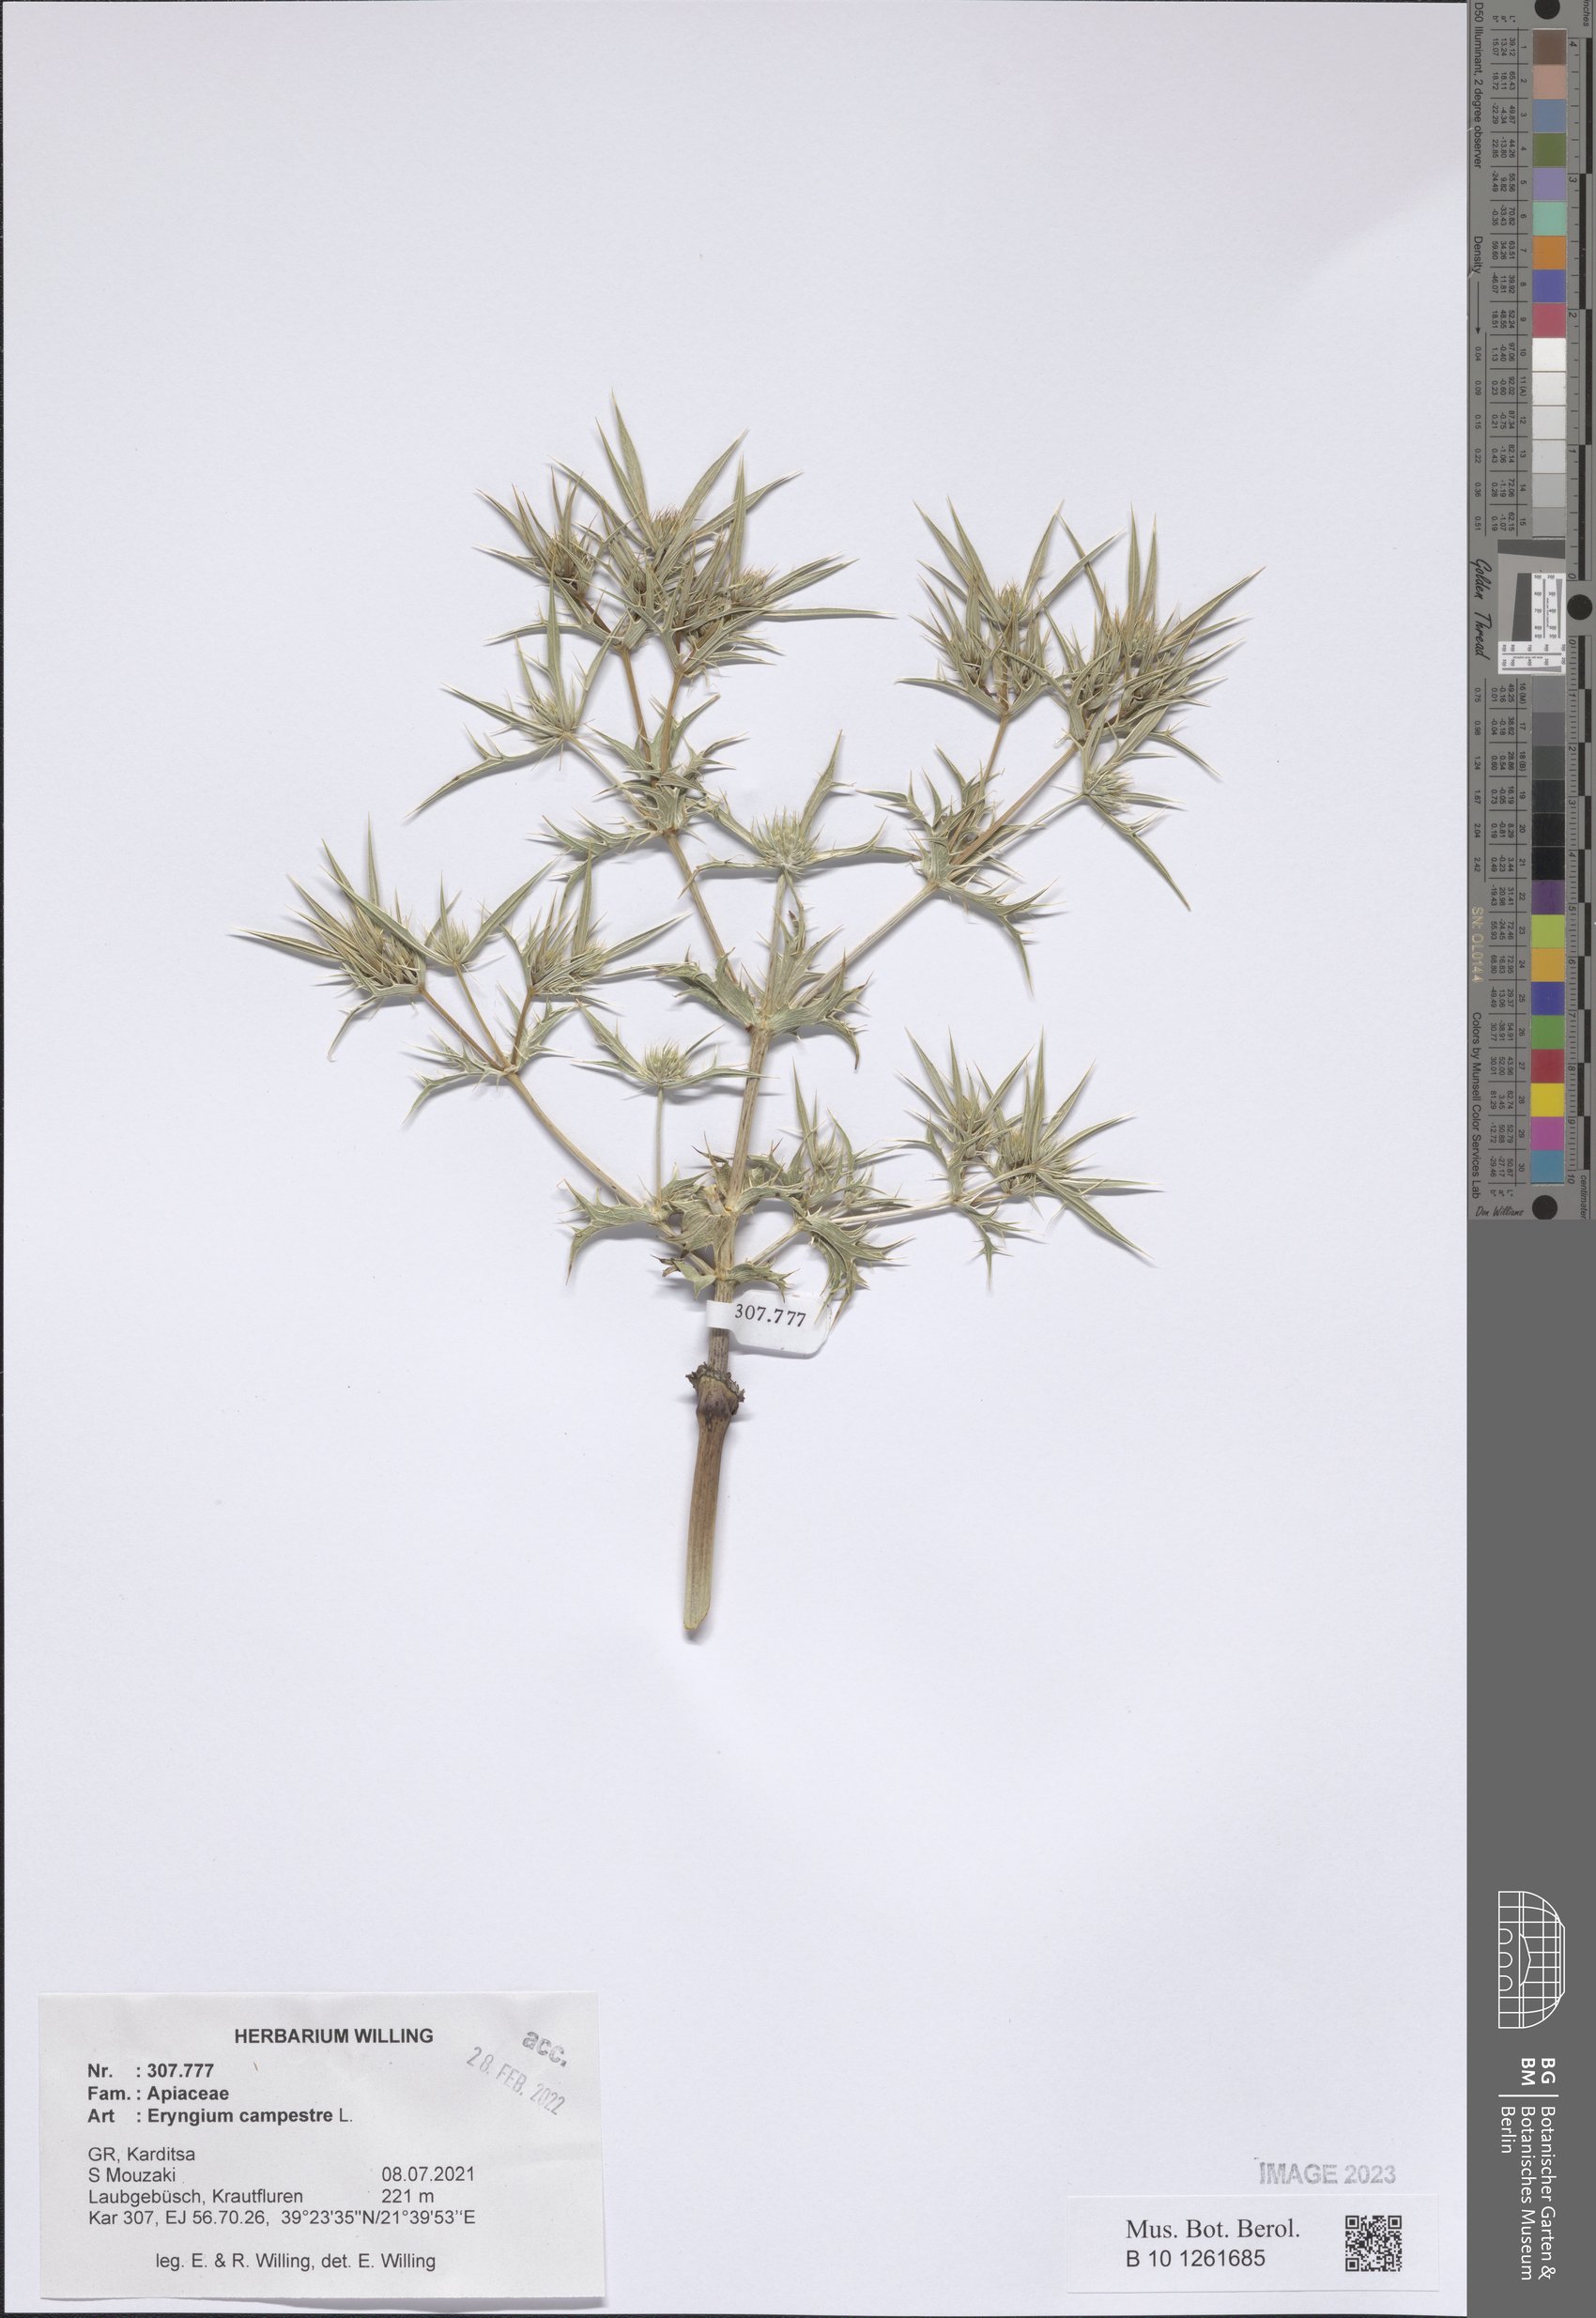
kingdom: Plantae
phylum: Tracheophyta
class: Magnoliopsida
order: Apiales
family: Apiaceae
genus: Eryngium
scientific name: Eryngium campestre
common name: Field eryngo
